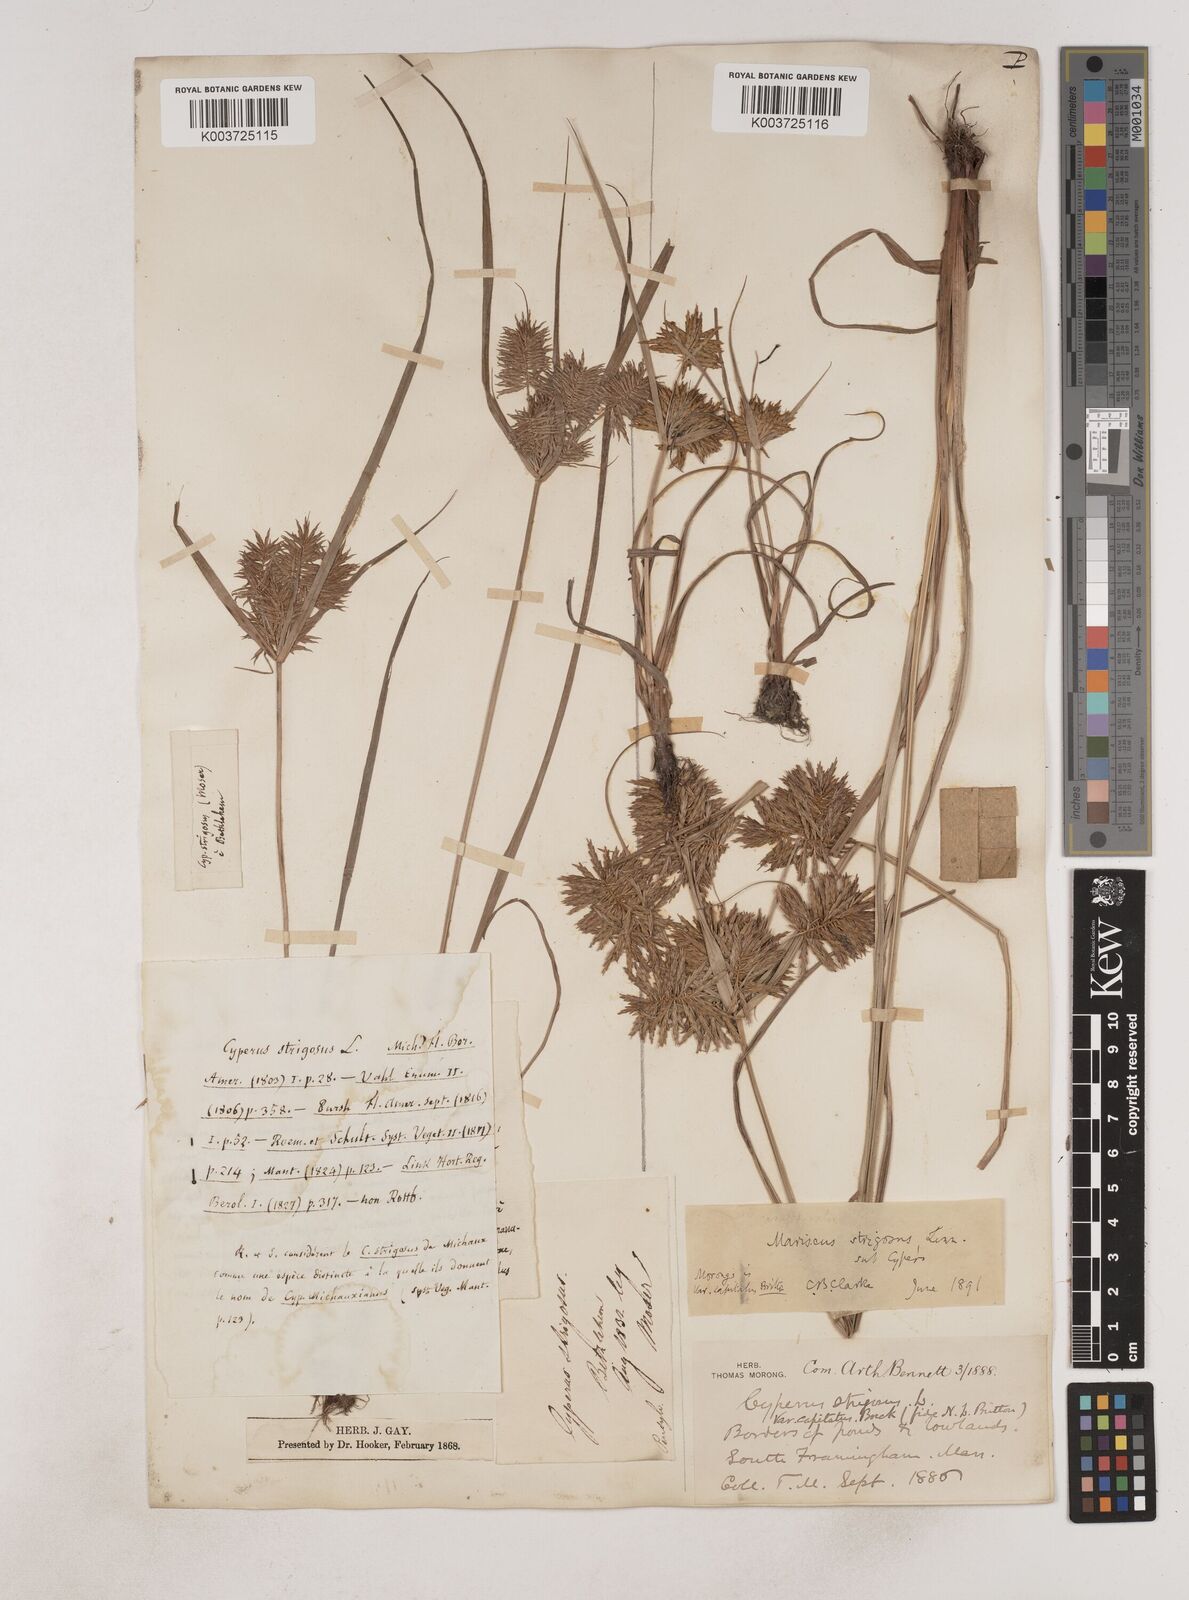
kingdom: Plantae
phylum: Tracheophyta
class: Liliopsida
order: Poales
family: Cyperaceae
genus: Cyperus
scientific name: Cyperus strigosus
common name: False nutsedge
